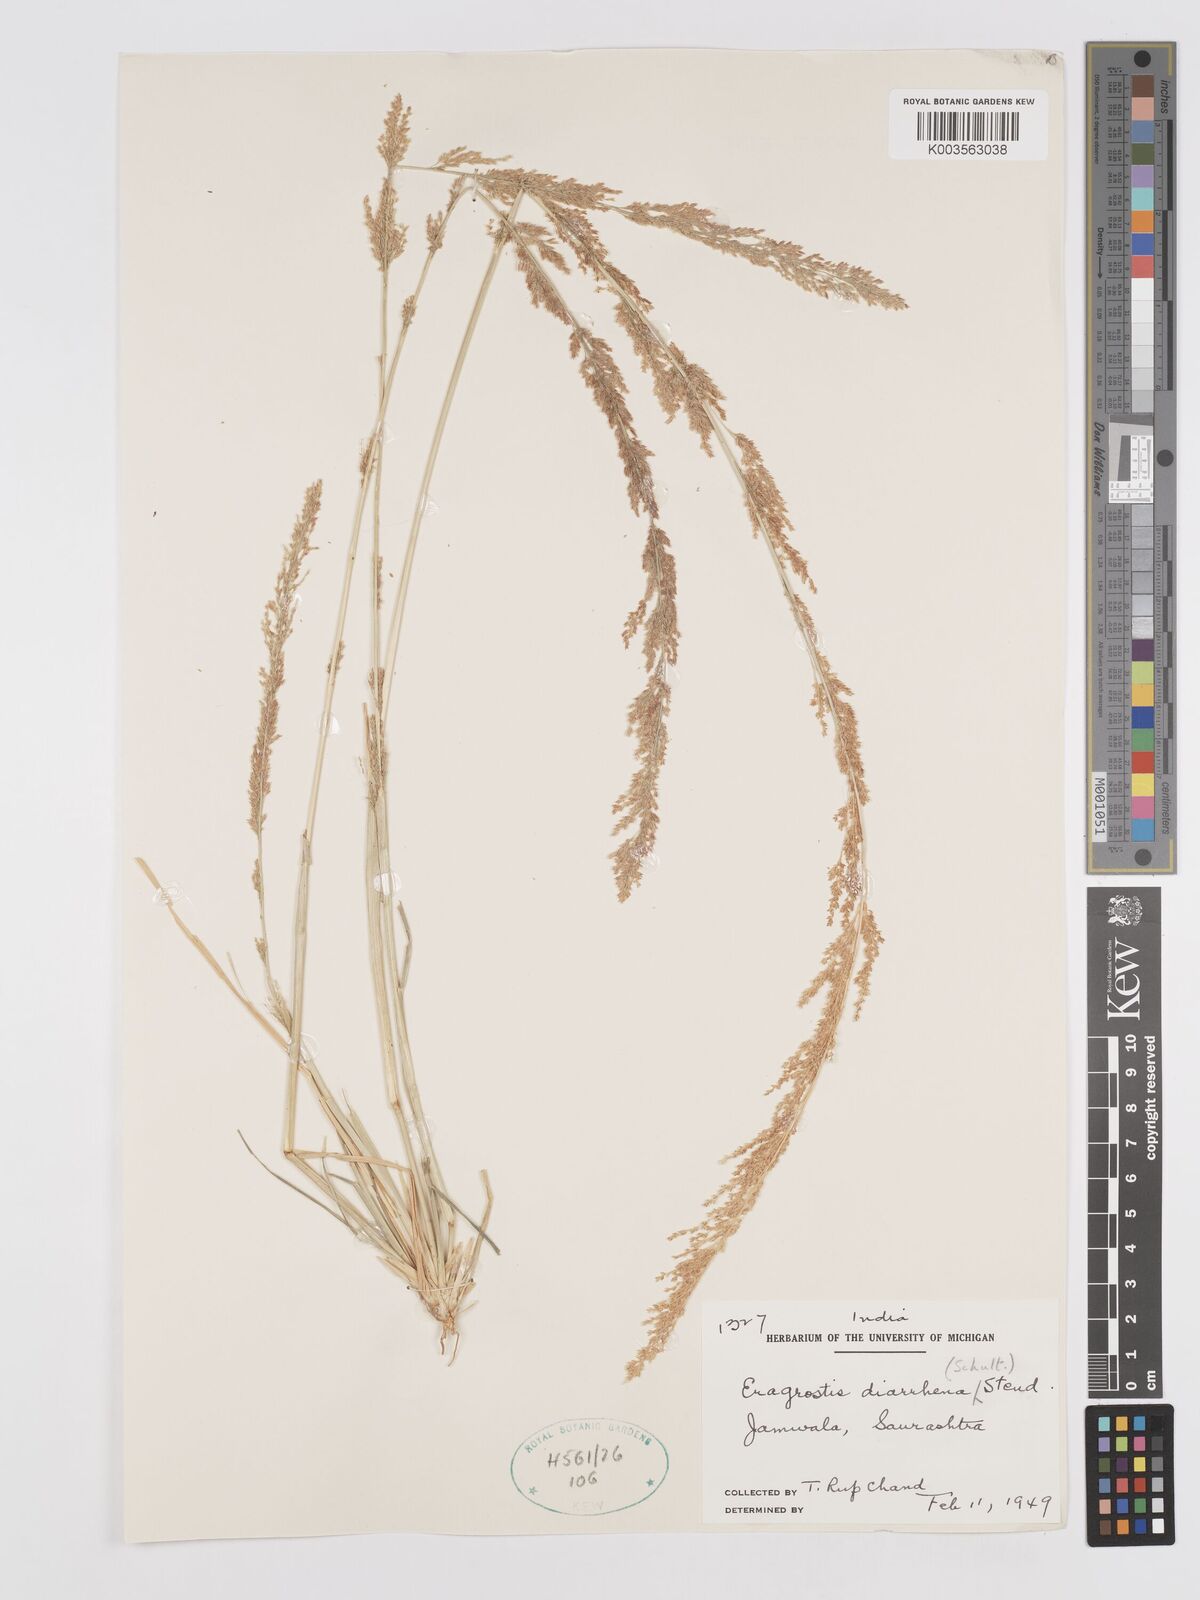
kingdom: Plantae
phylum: Tracheophyta
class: Liliopsida
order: Poales
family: Poaceae
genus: Eragrostis
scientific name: Eragrostis japonica
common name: Pond lovegrass
